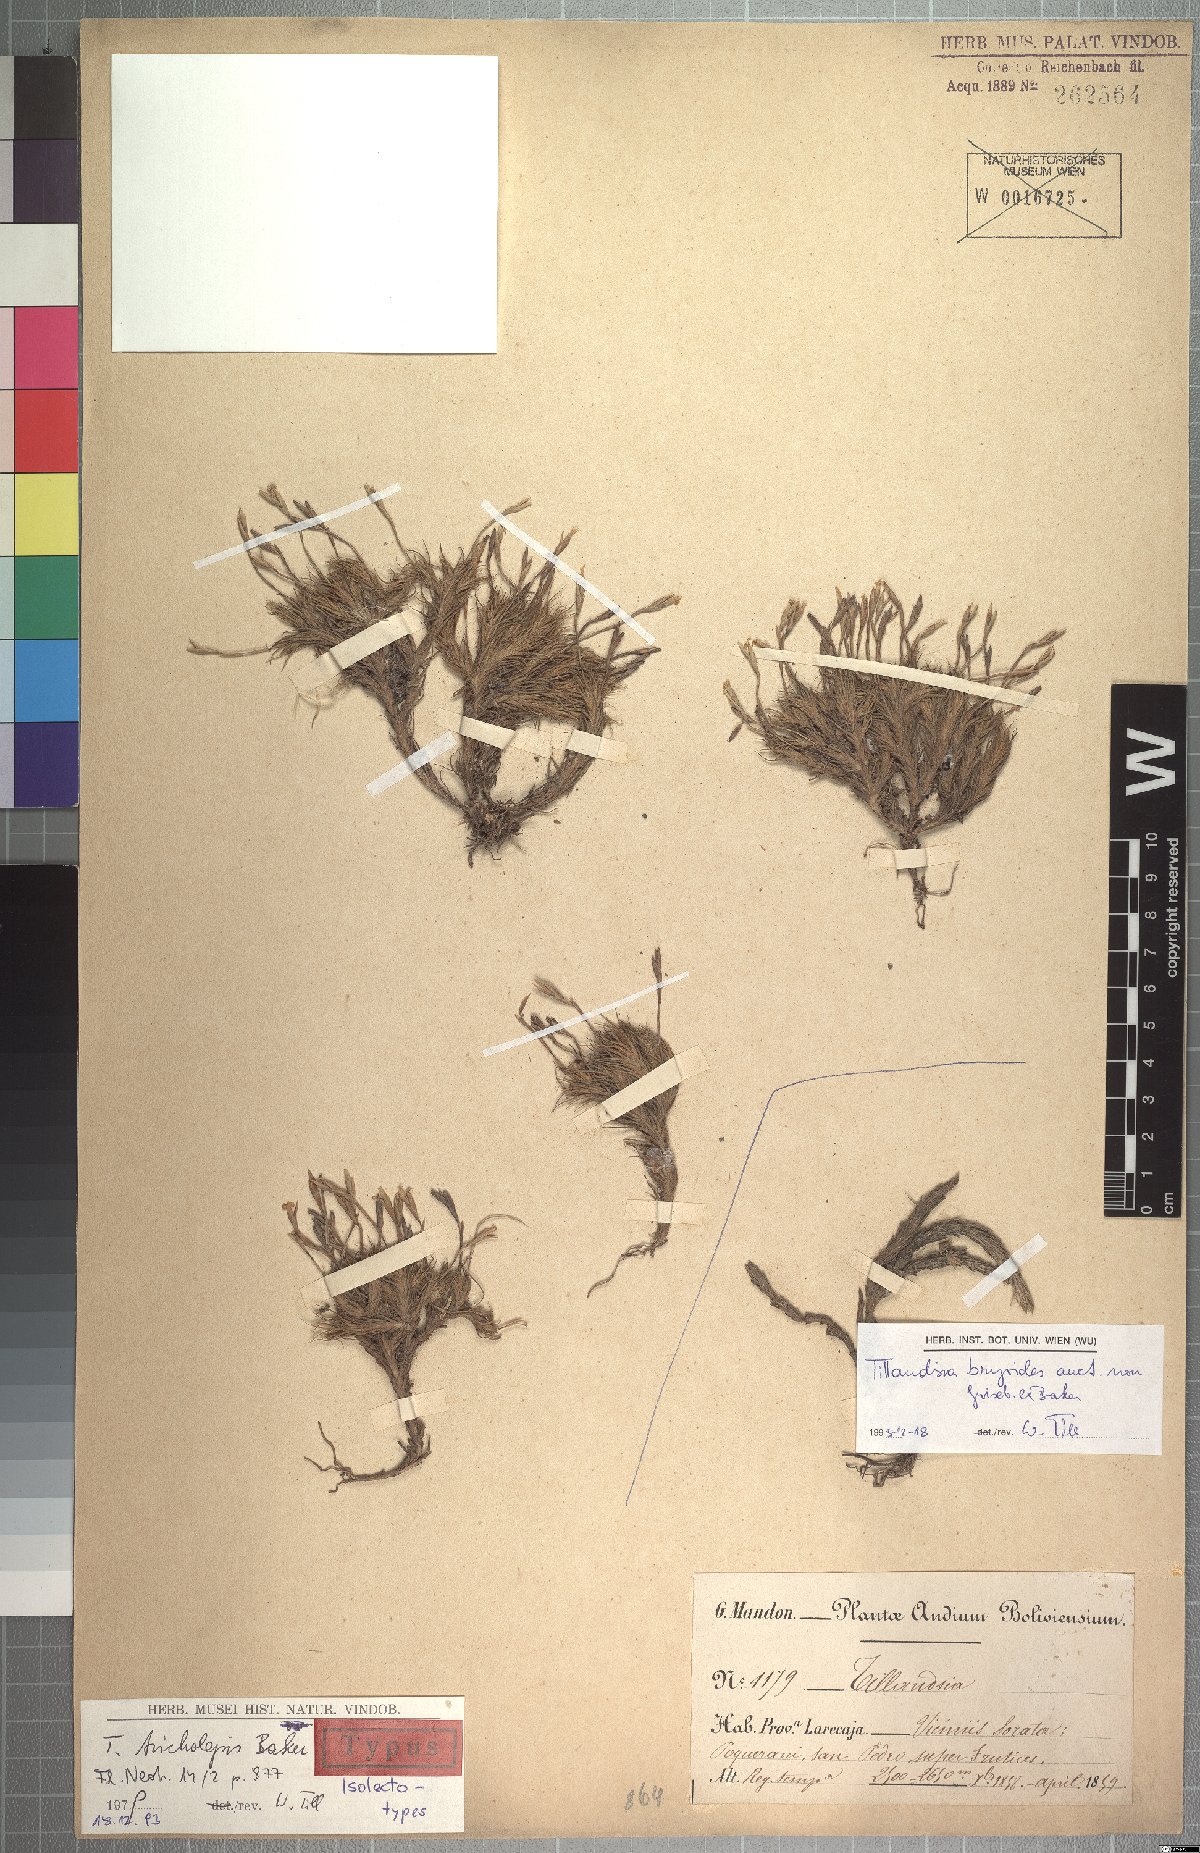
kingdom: Plantae
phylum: Tracheophyta
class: Liliopsida
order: Poales
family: Bromeliaceae
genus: Tillandsia
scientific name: Tillandsia tricholepis
